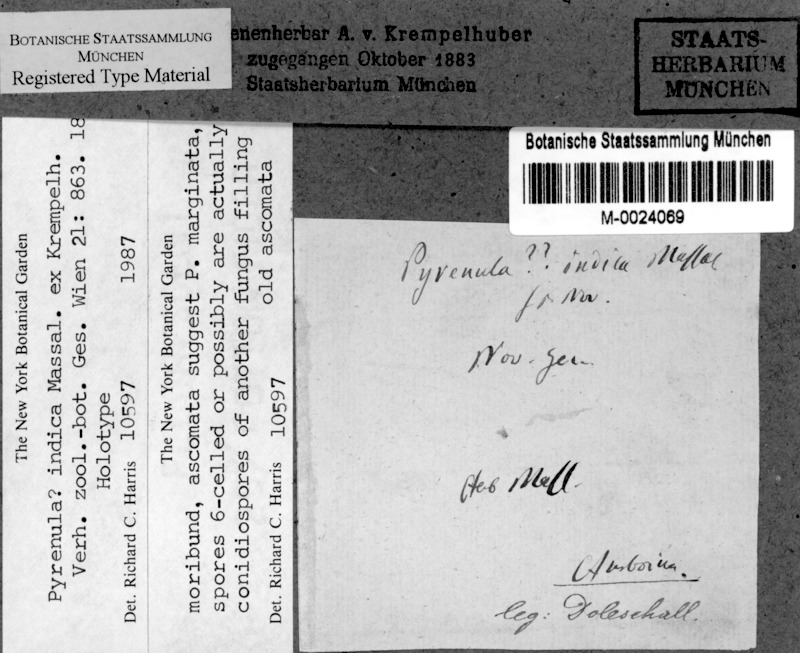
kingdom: Fungi
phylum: Ascomycota
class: Eurotiomycetes
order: Pyrenulales
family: Pyrenulaceae
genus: Pyrenula
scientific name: Pyrenula
